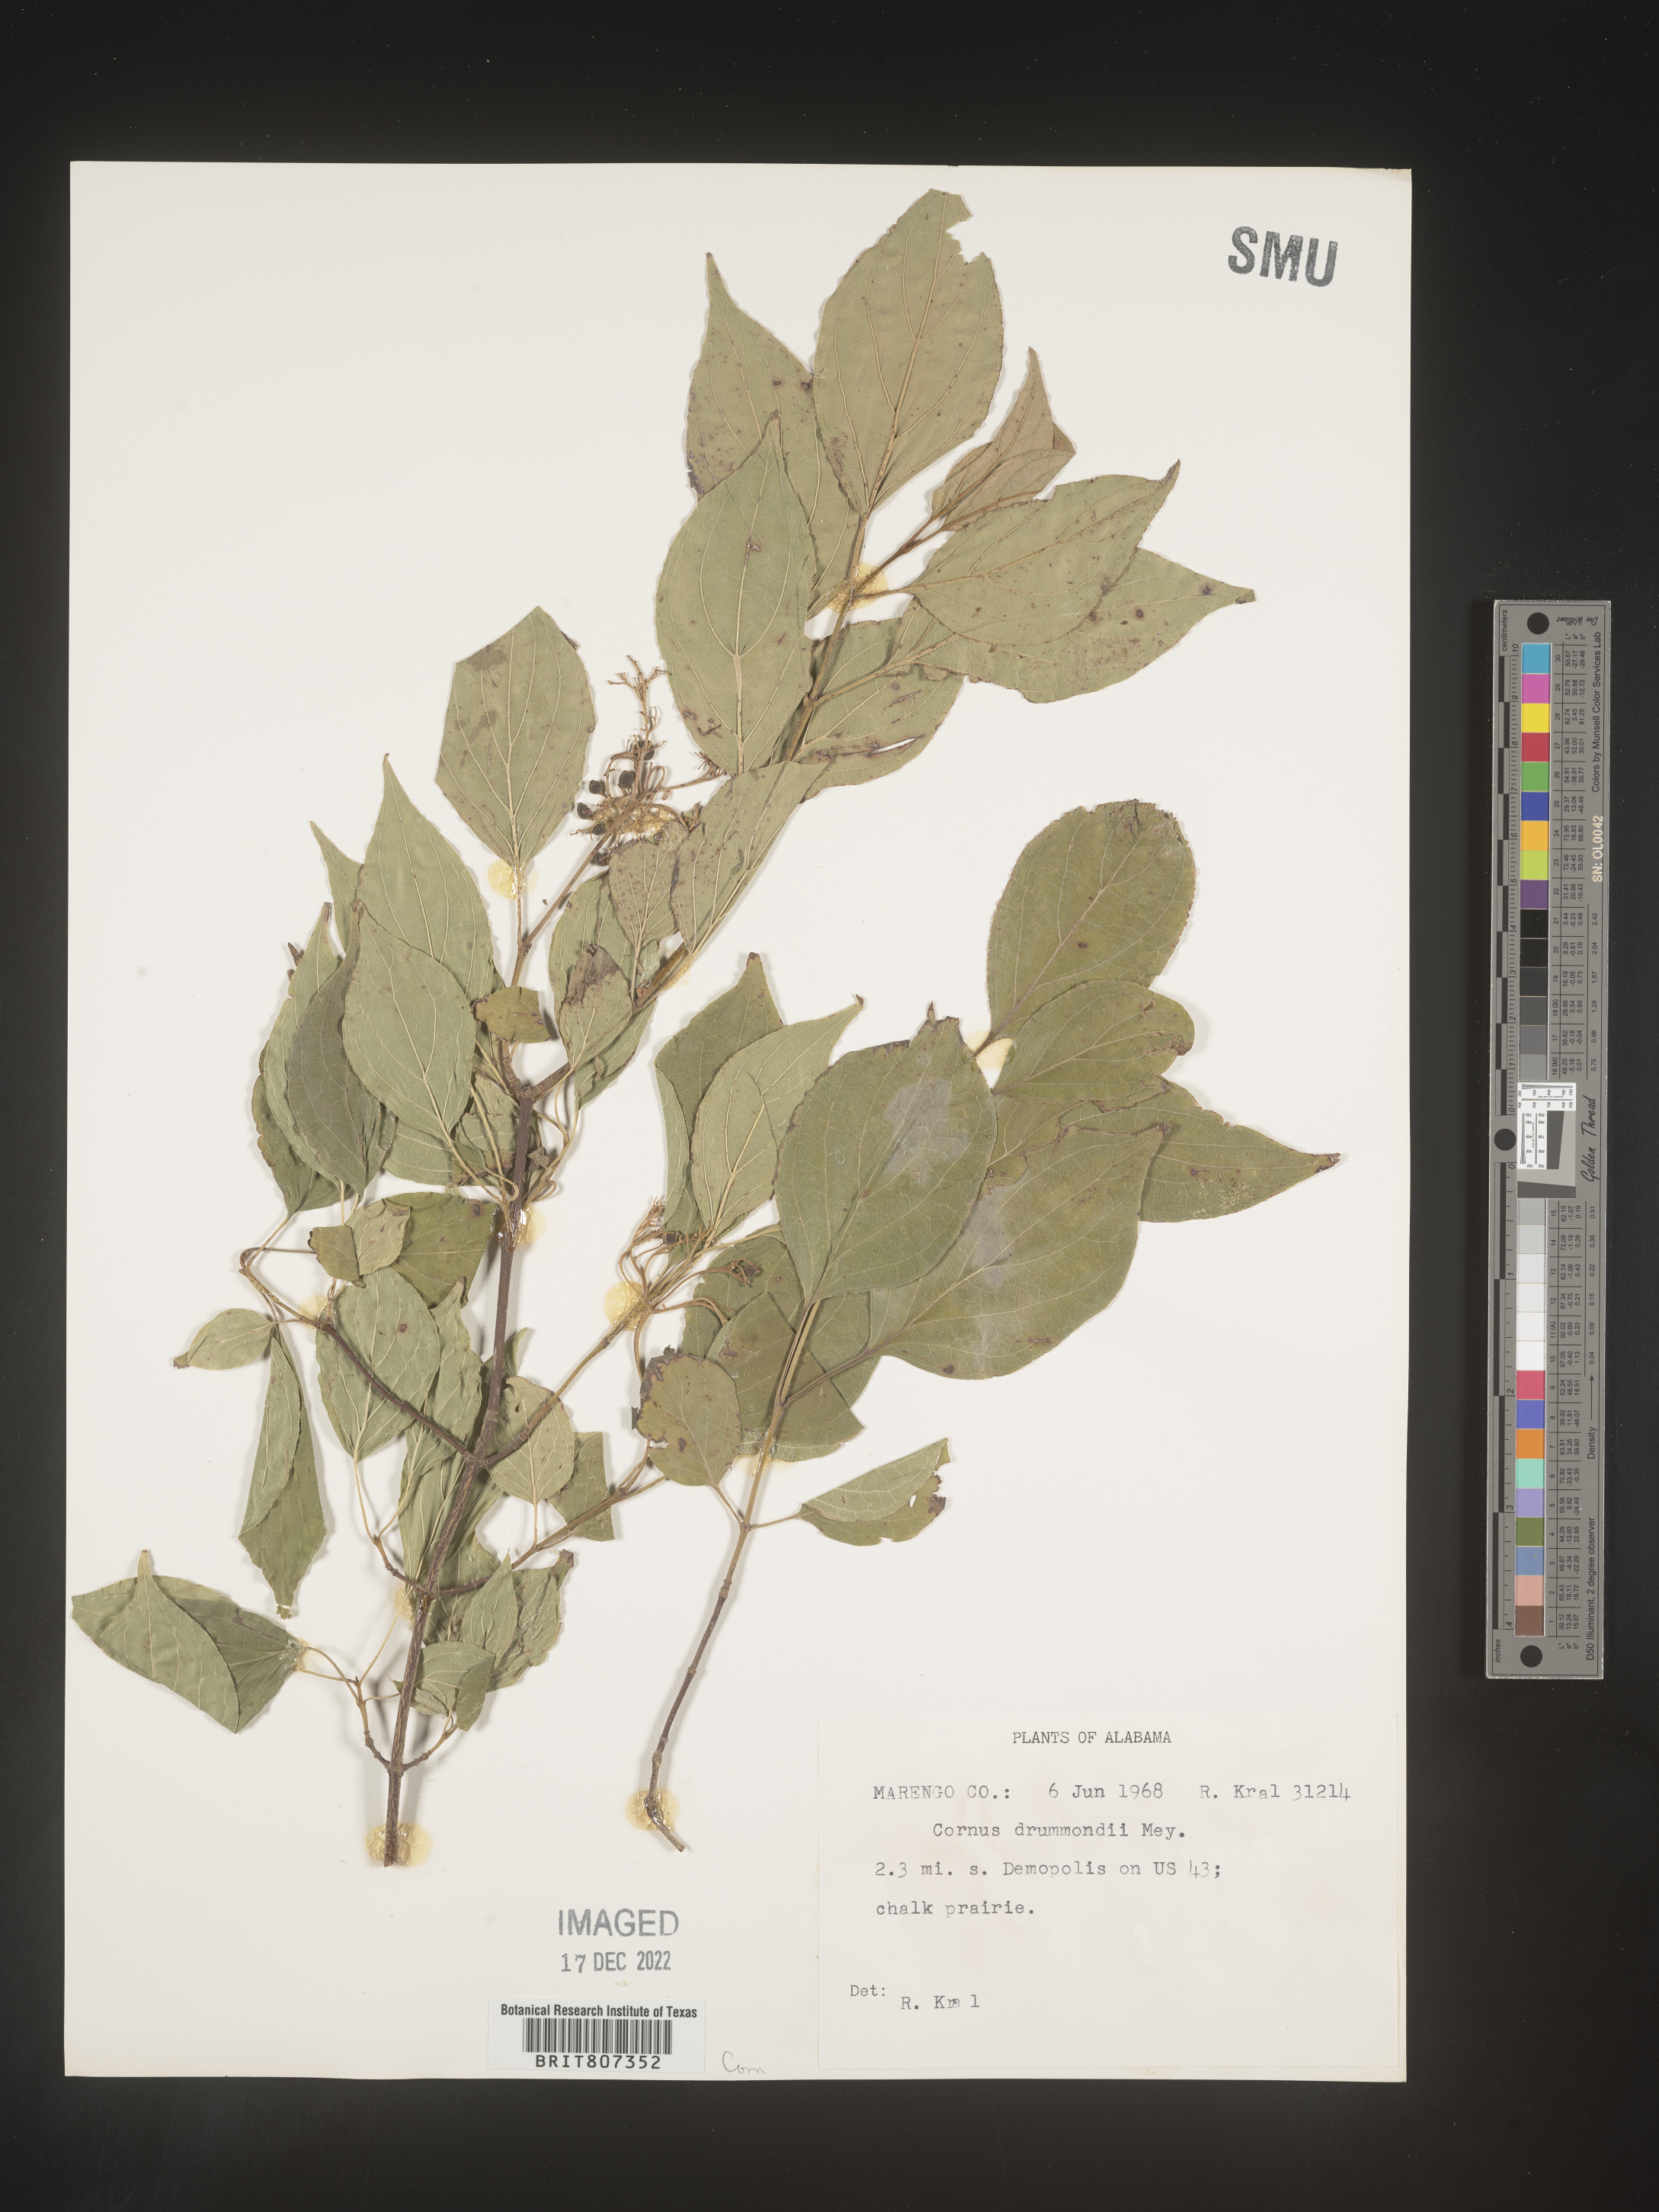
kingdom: Plantae
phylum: Tracheophyta
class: Magnoliopsida
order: Cornales
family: Cornaceae
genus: Cornus
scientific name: Cornus drummondii
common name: Rough-leaf dogwood
